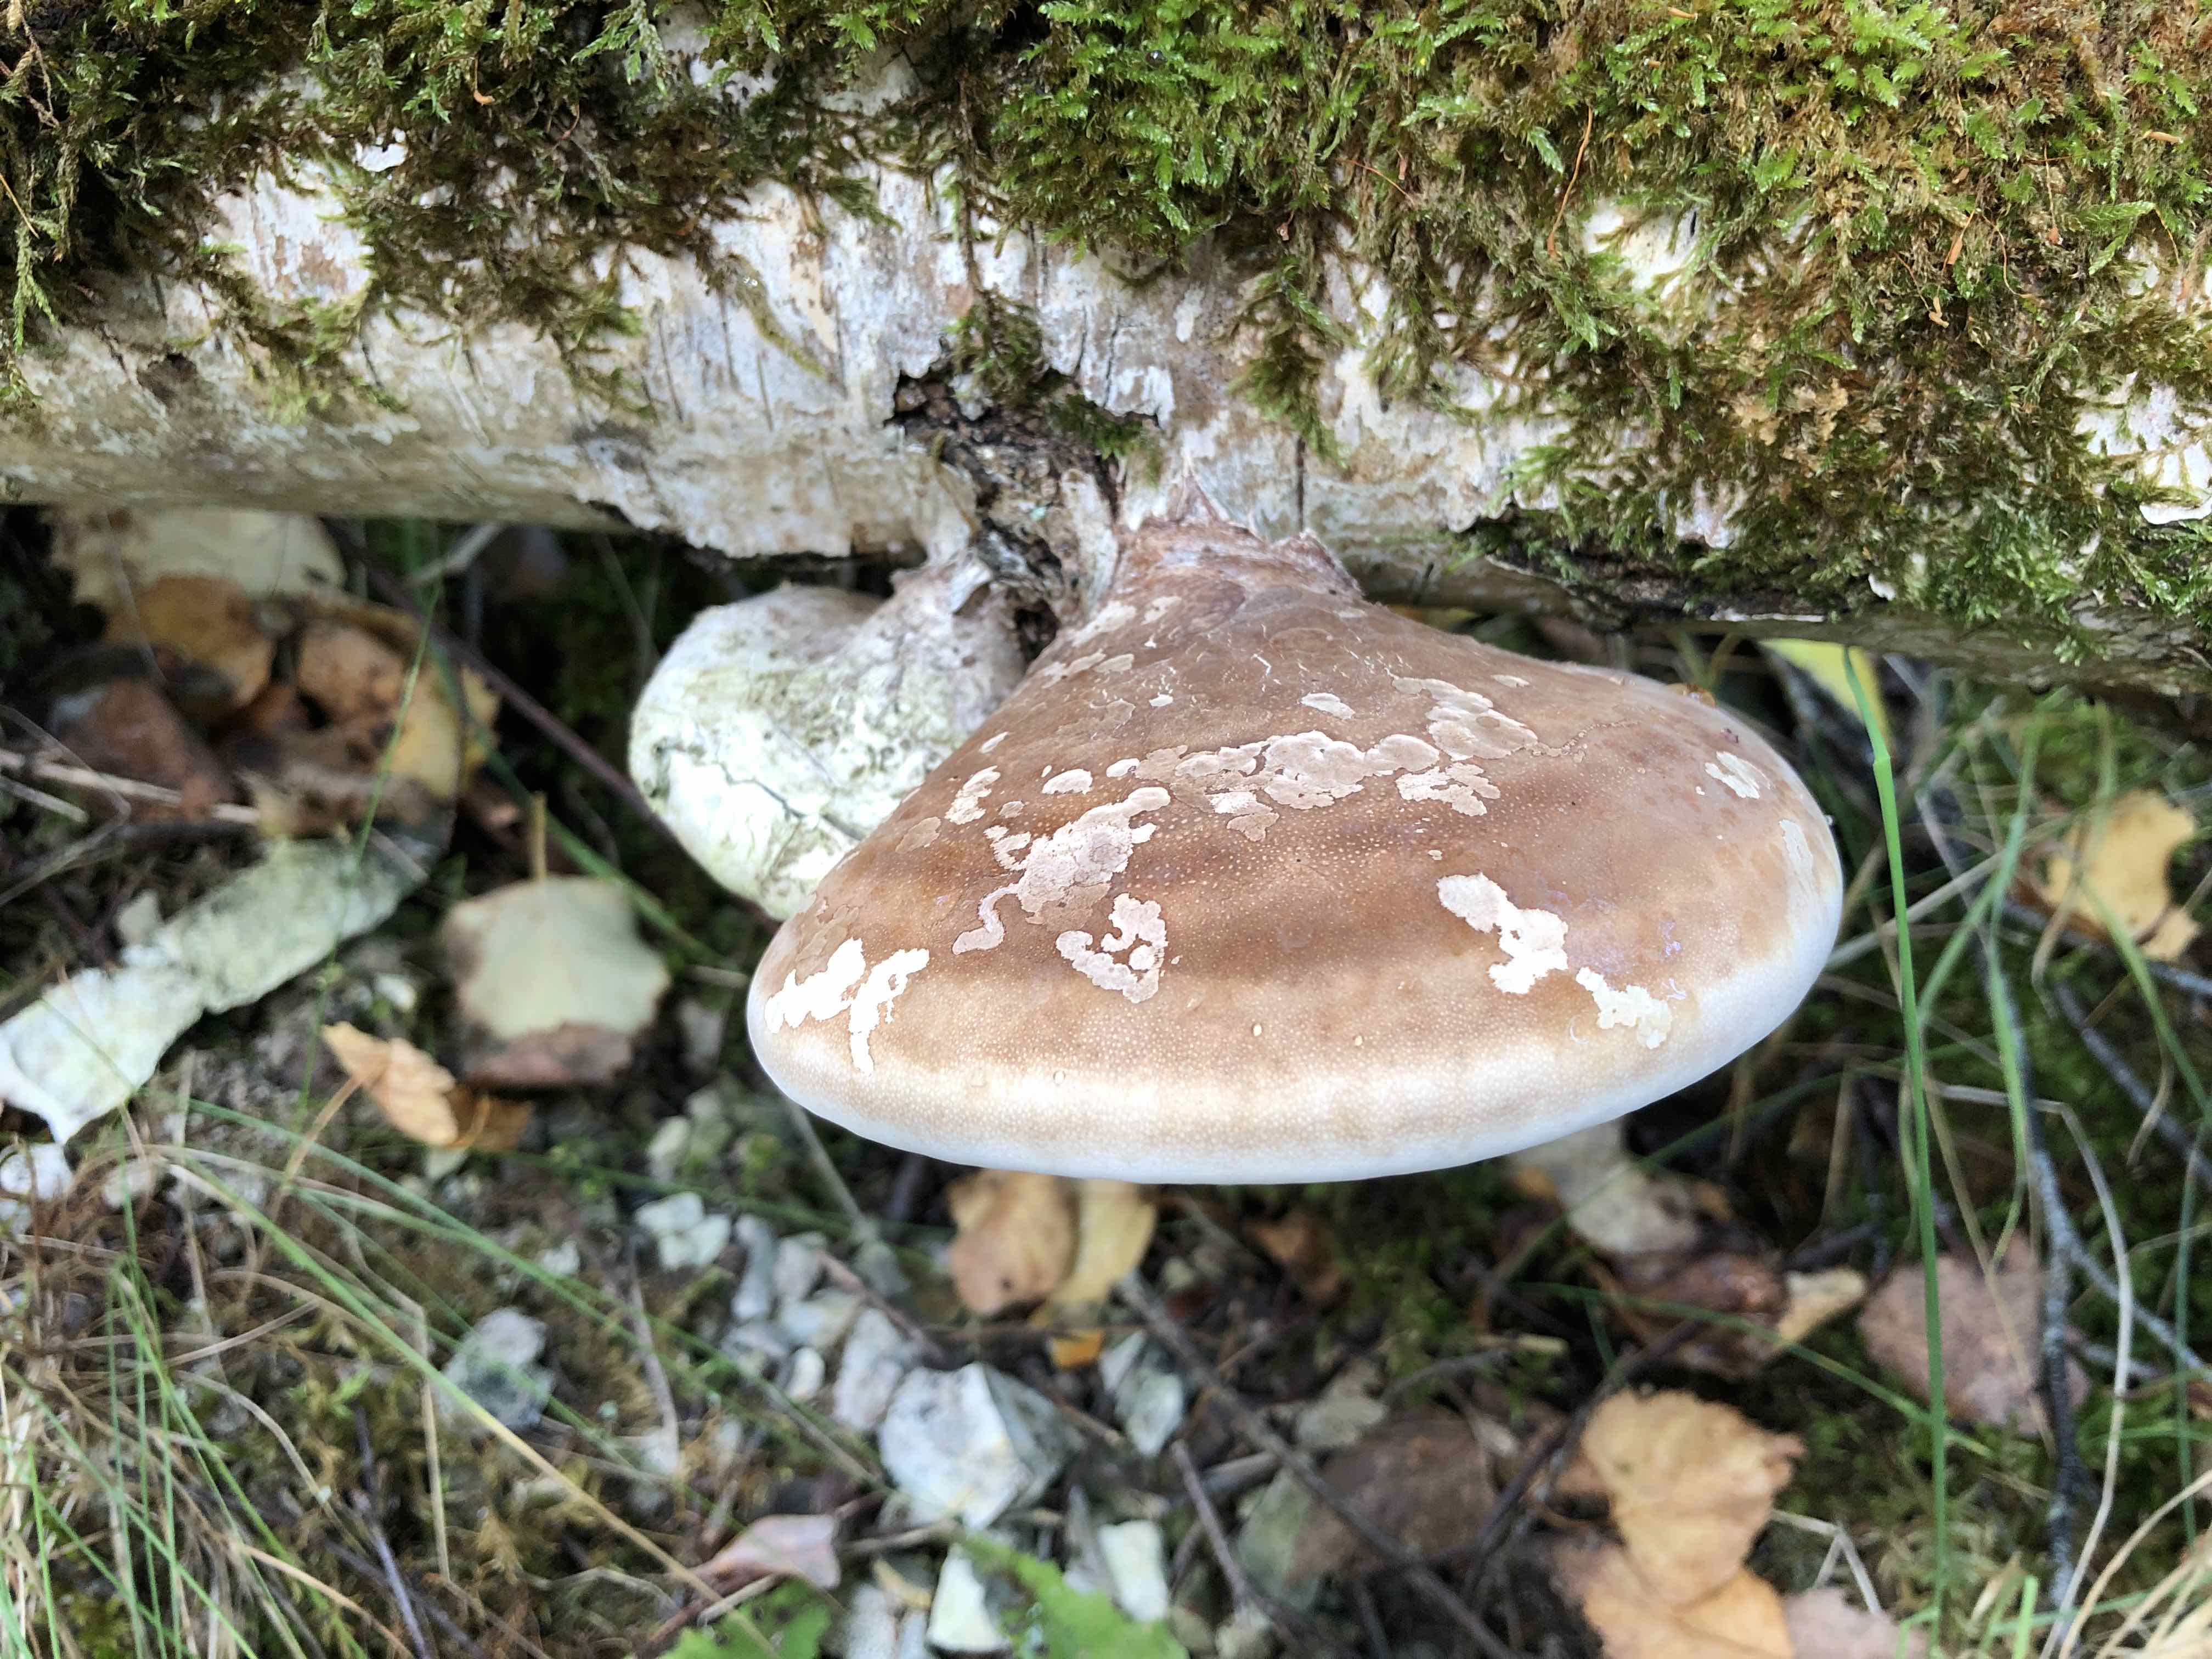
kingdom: Fungi
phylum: Basidiomycota
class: Agaricomycetes
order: Polyporales
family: Fomitopsidaceae
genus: Fomitopsis
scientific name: Fomitopsis betulina
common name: birkeporesvamp
